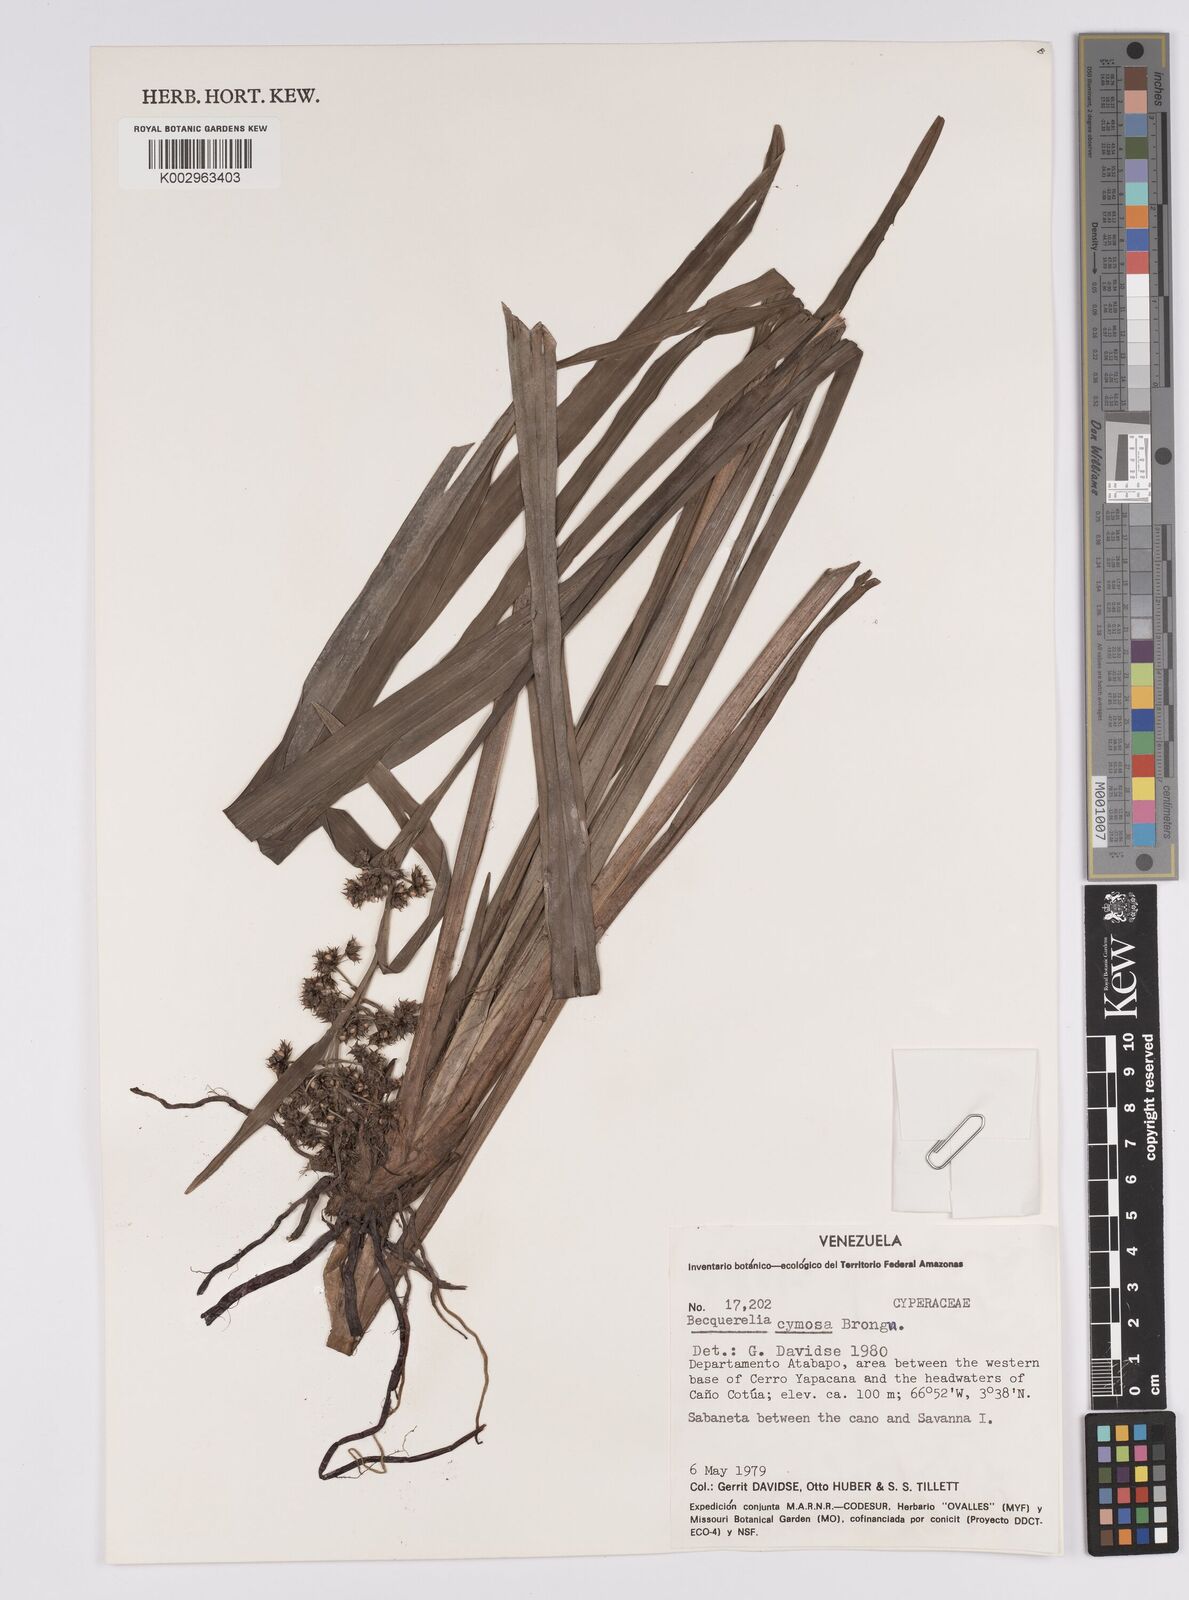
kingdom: Plantae
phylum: Tracheophyta
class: Liliopsida
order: Poales
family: Cyperaceae
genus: Becquerelia
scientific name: Becquerelia cymosa
